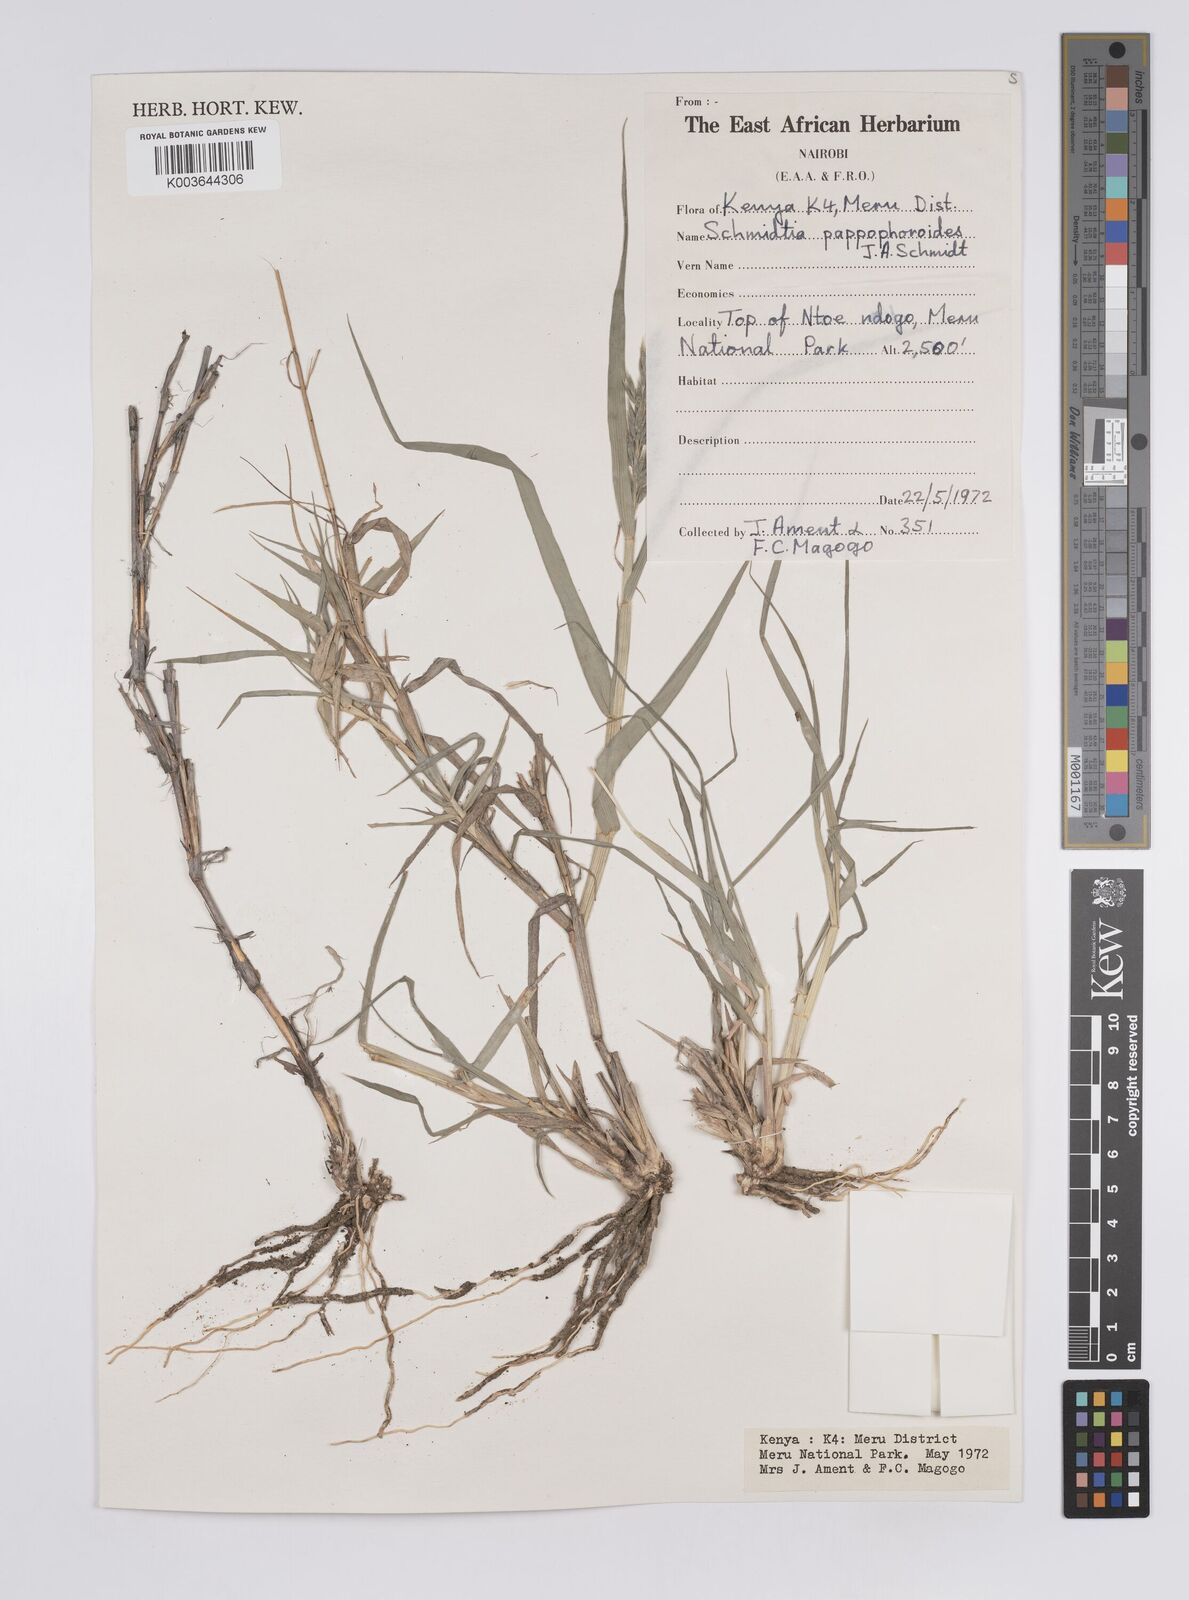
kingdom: Plantae
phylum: Tracheophyta
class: Liliopsida
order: Poales
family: Poaceae
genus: Schmidtia
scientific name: Schmidtia pappophoroides
